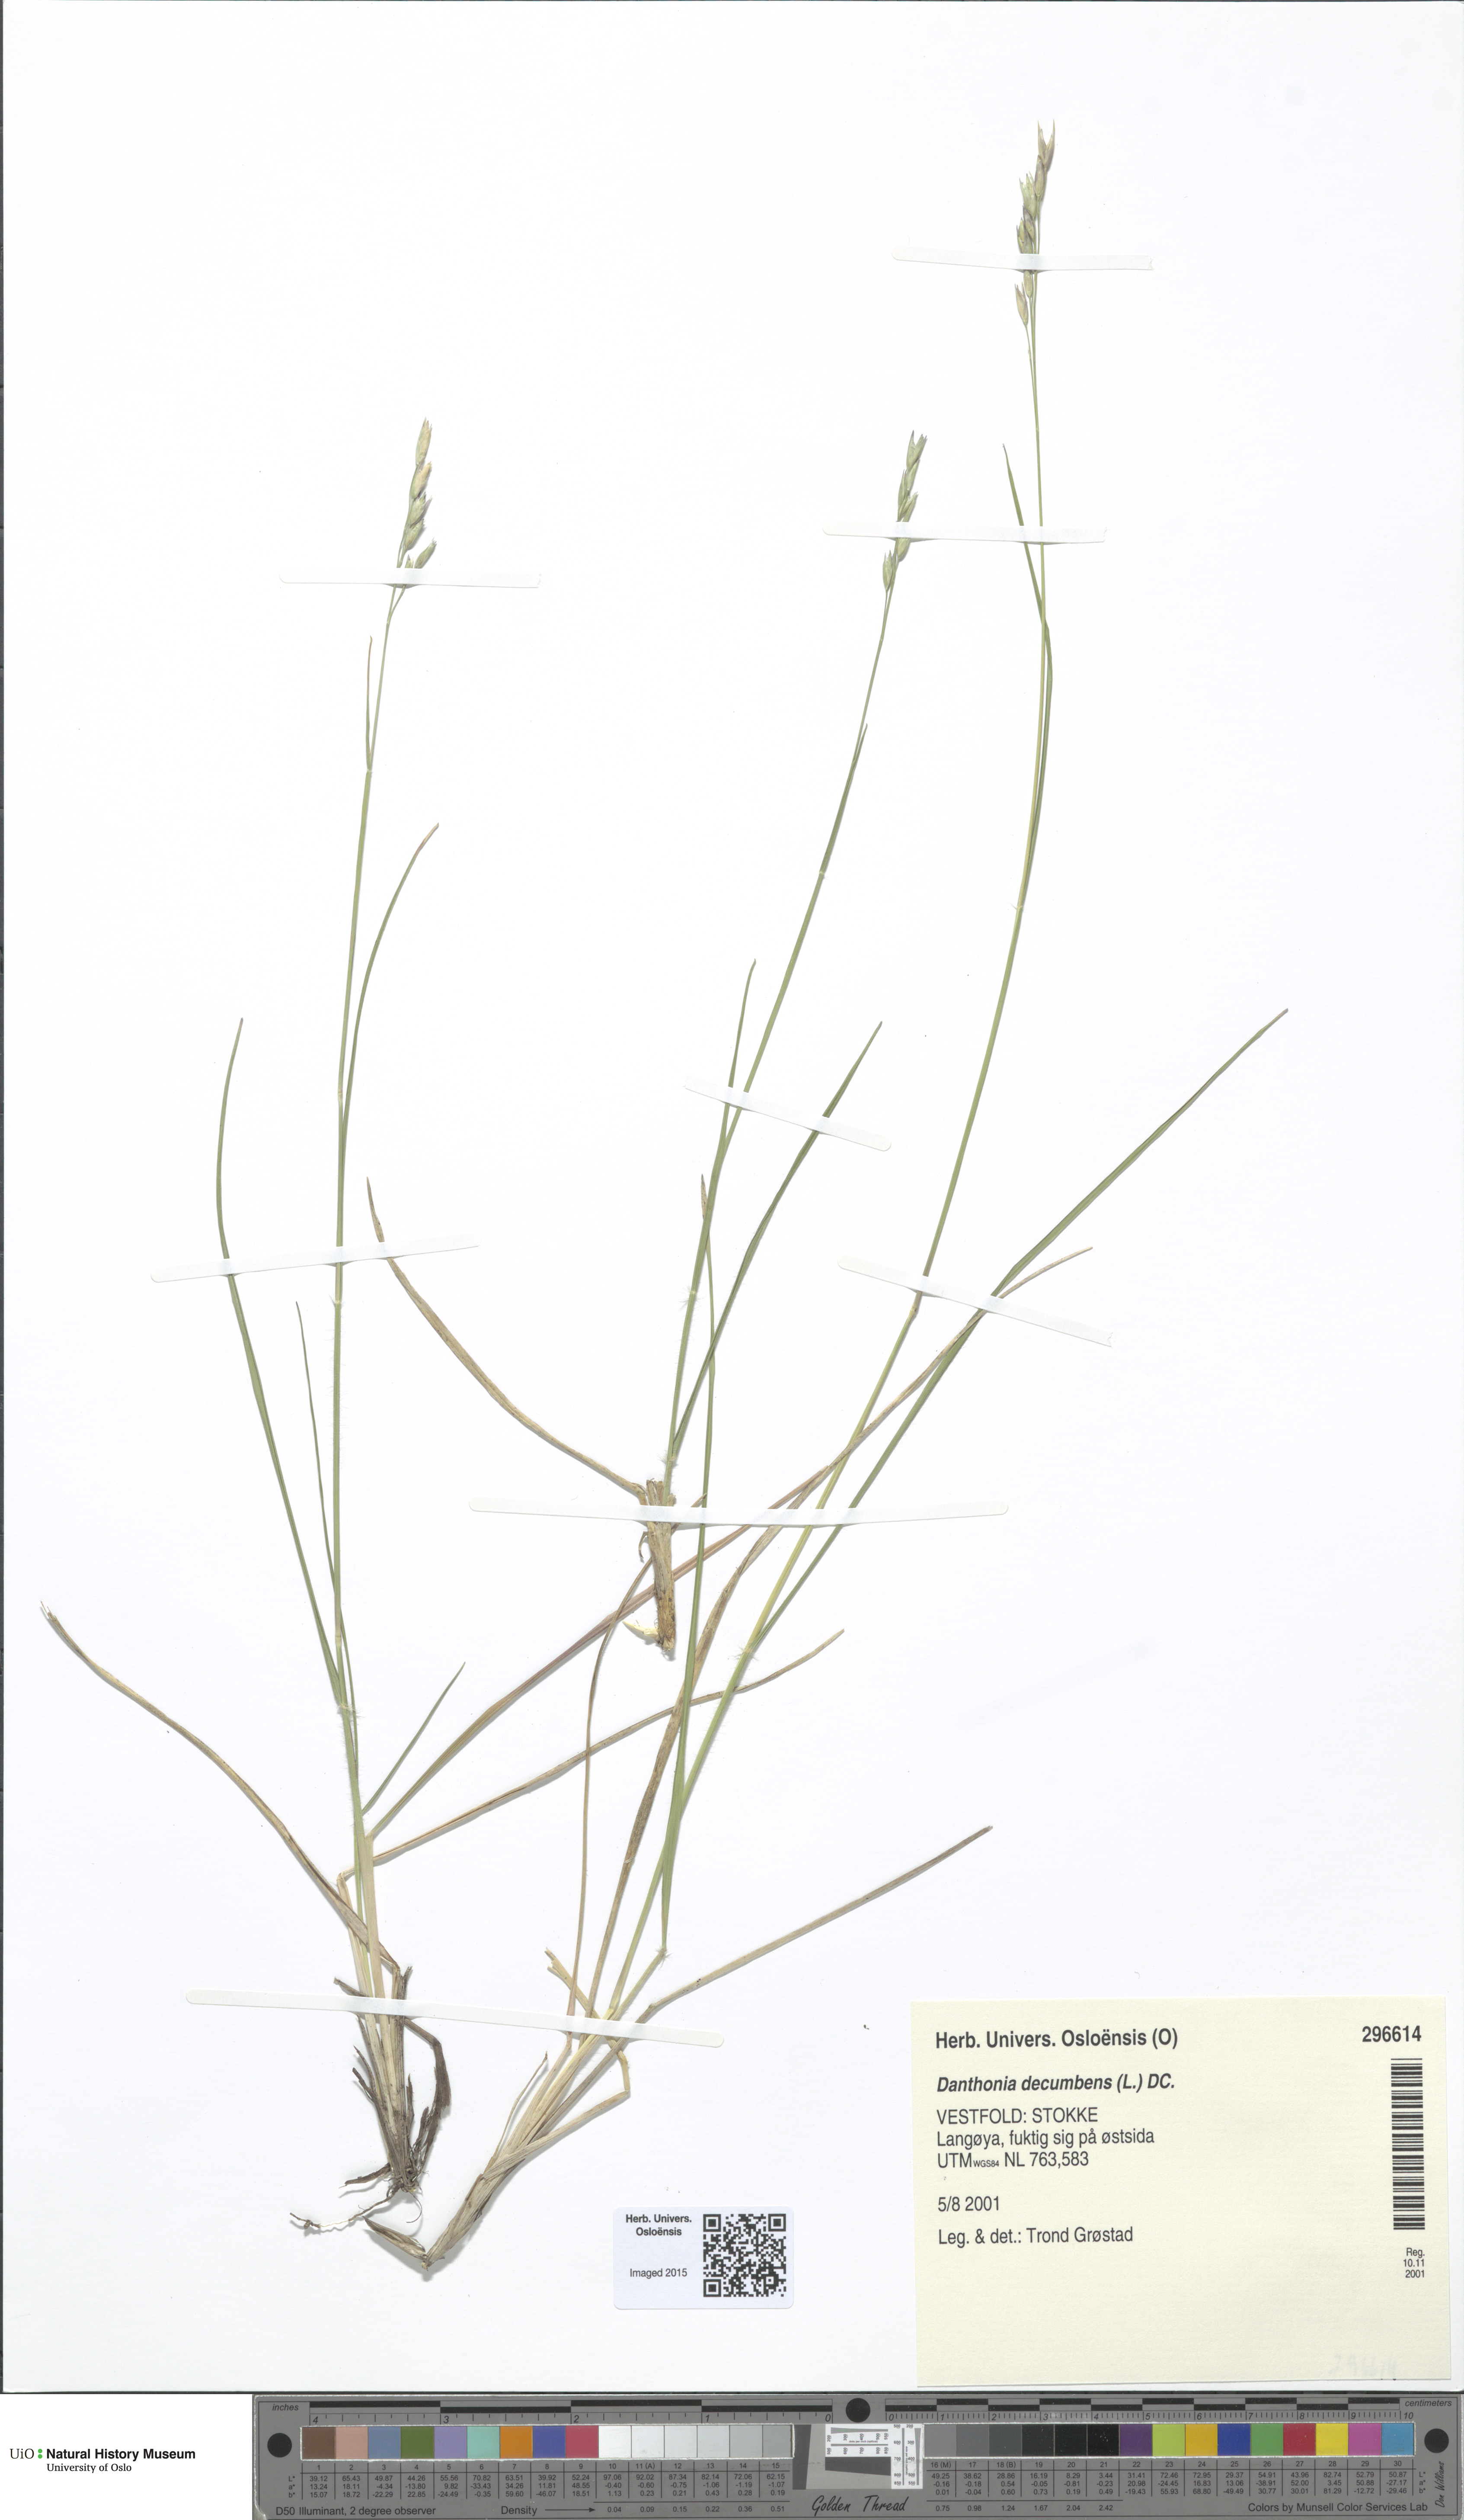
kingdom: Plantae
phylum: Tracheophyta
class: Liliopsida
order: Poales
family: Poaceae
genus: Danthonia
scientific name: Danthonia decumbens
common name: Common heathgrass
